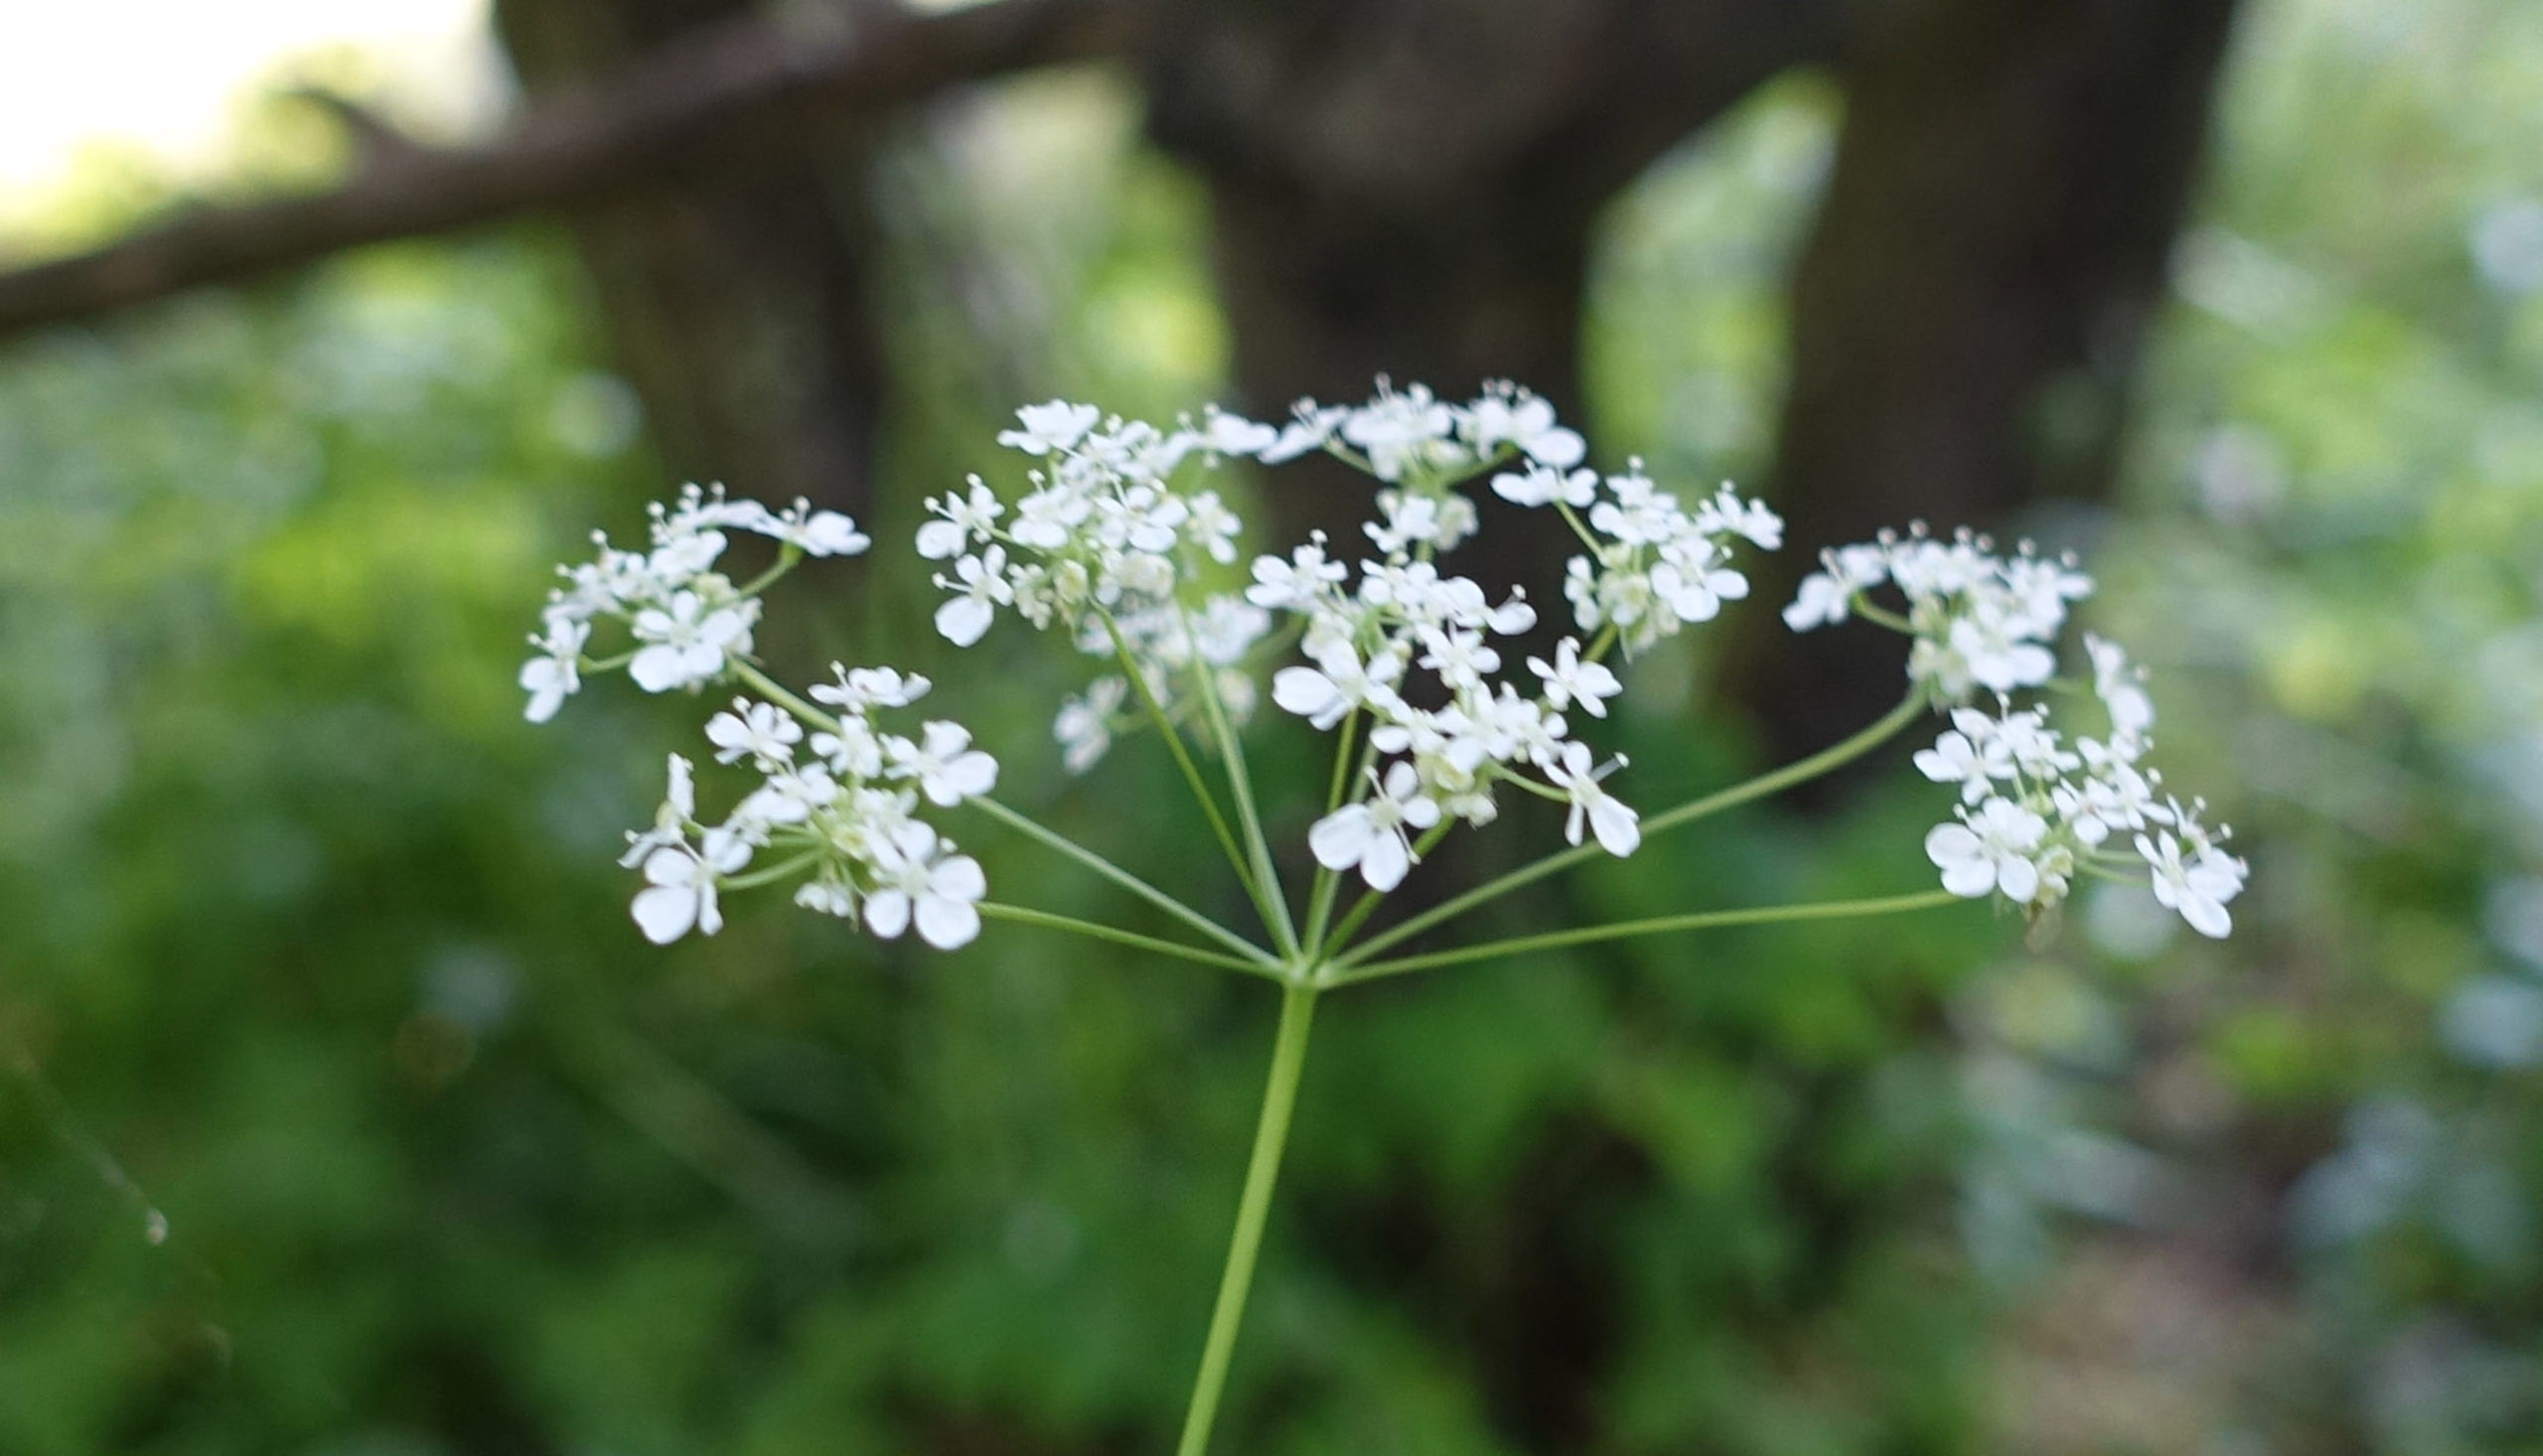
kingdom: Plantae
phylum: Tracheophyta
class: Magnoliopsida
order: Apiales
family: Apiaceae
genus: Anthriscus
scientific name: Anthriscus sylvestris
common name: Vild kørvel
